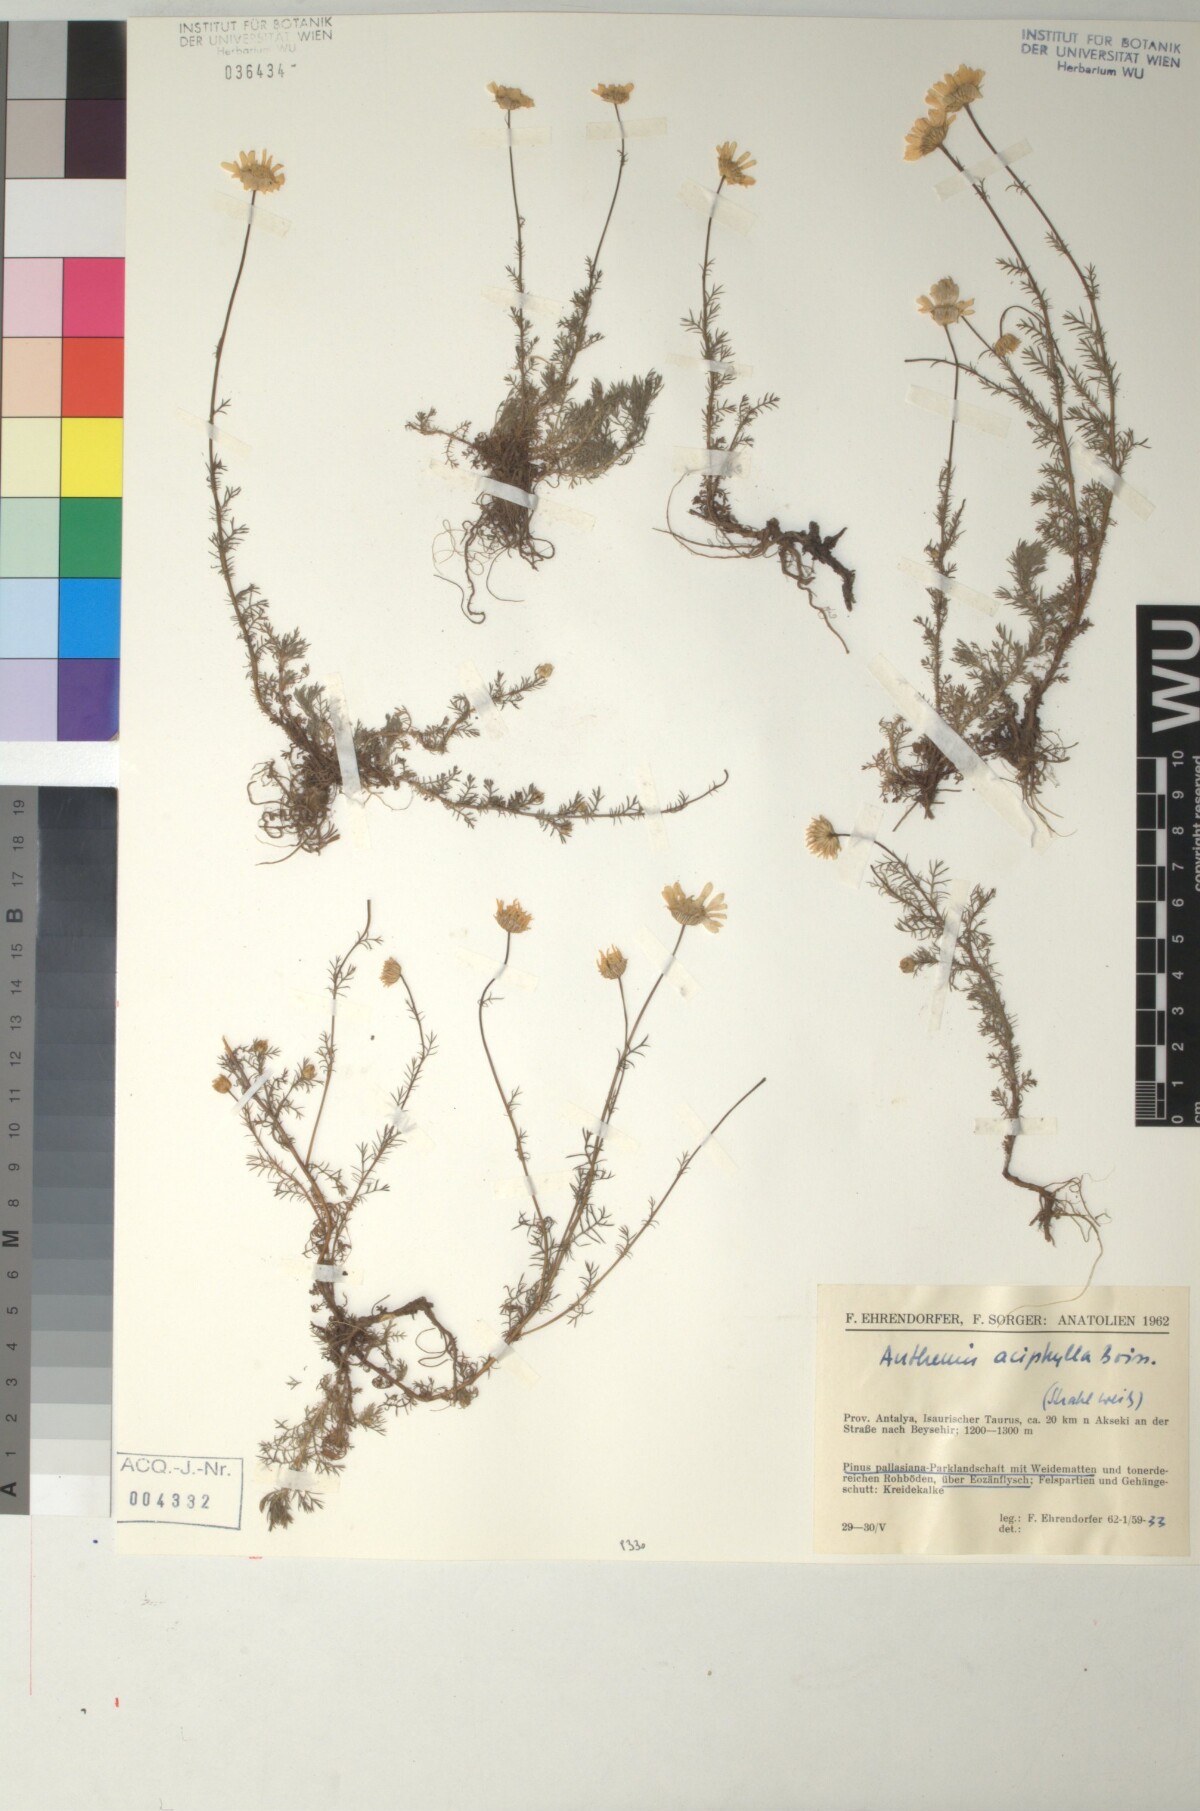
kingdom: Plantae
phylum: Tracheophyta
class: Magnoliopsida
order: Asterales
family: Asteraceae
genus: Anthemis
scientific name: Anthemis orientalis
